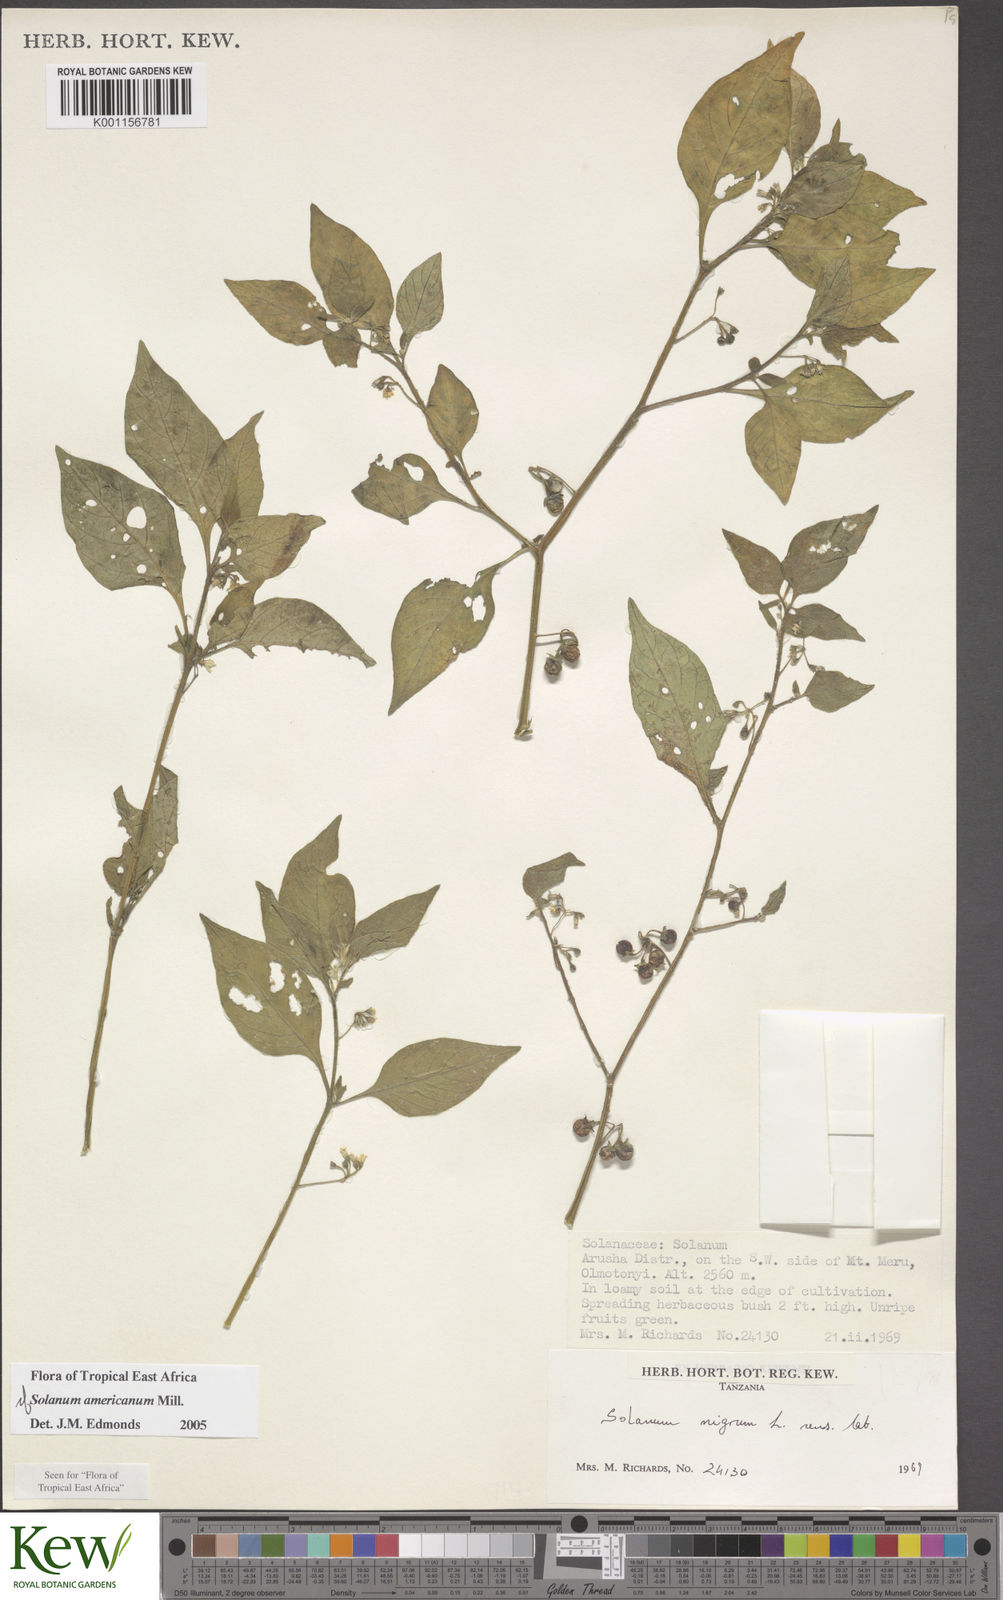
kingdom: Plantae
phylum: Tracheophyta
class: Magnoliopsida
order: Solanales
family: Solanaceae
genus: Solanum
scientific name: Solanum americanum
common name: American black nightshade
